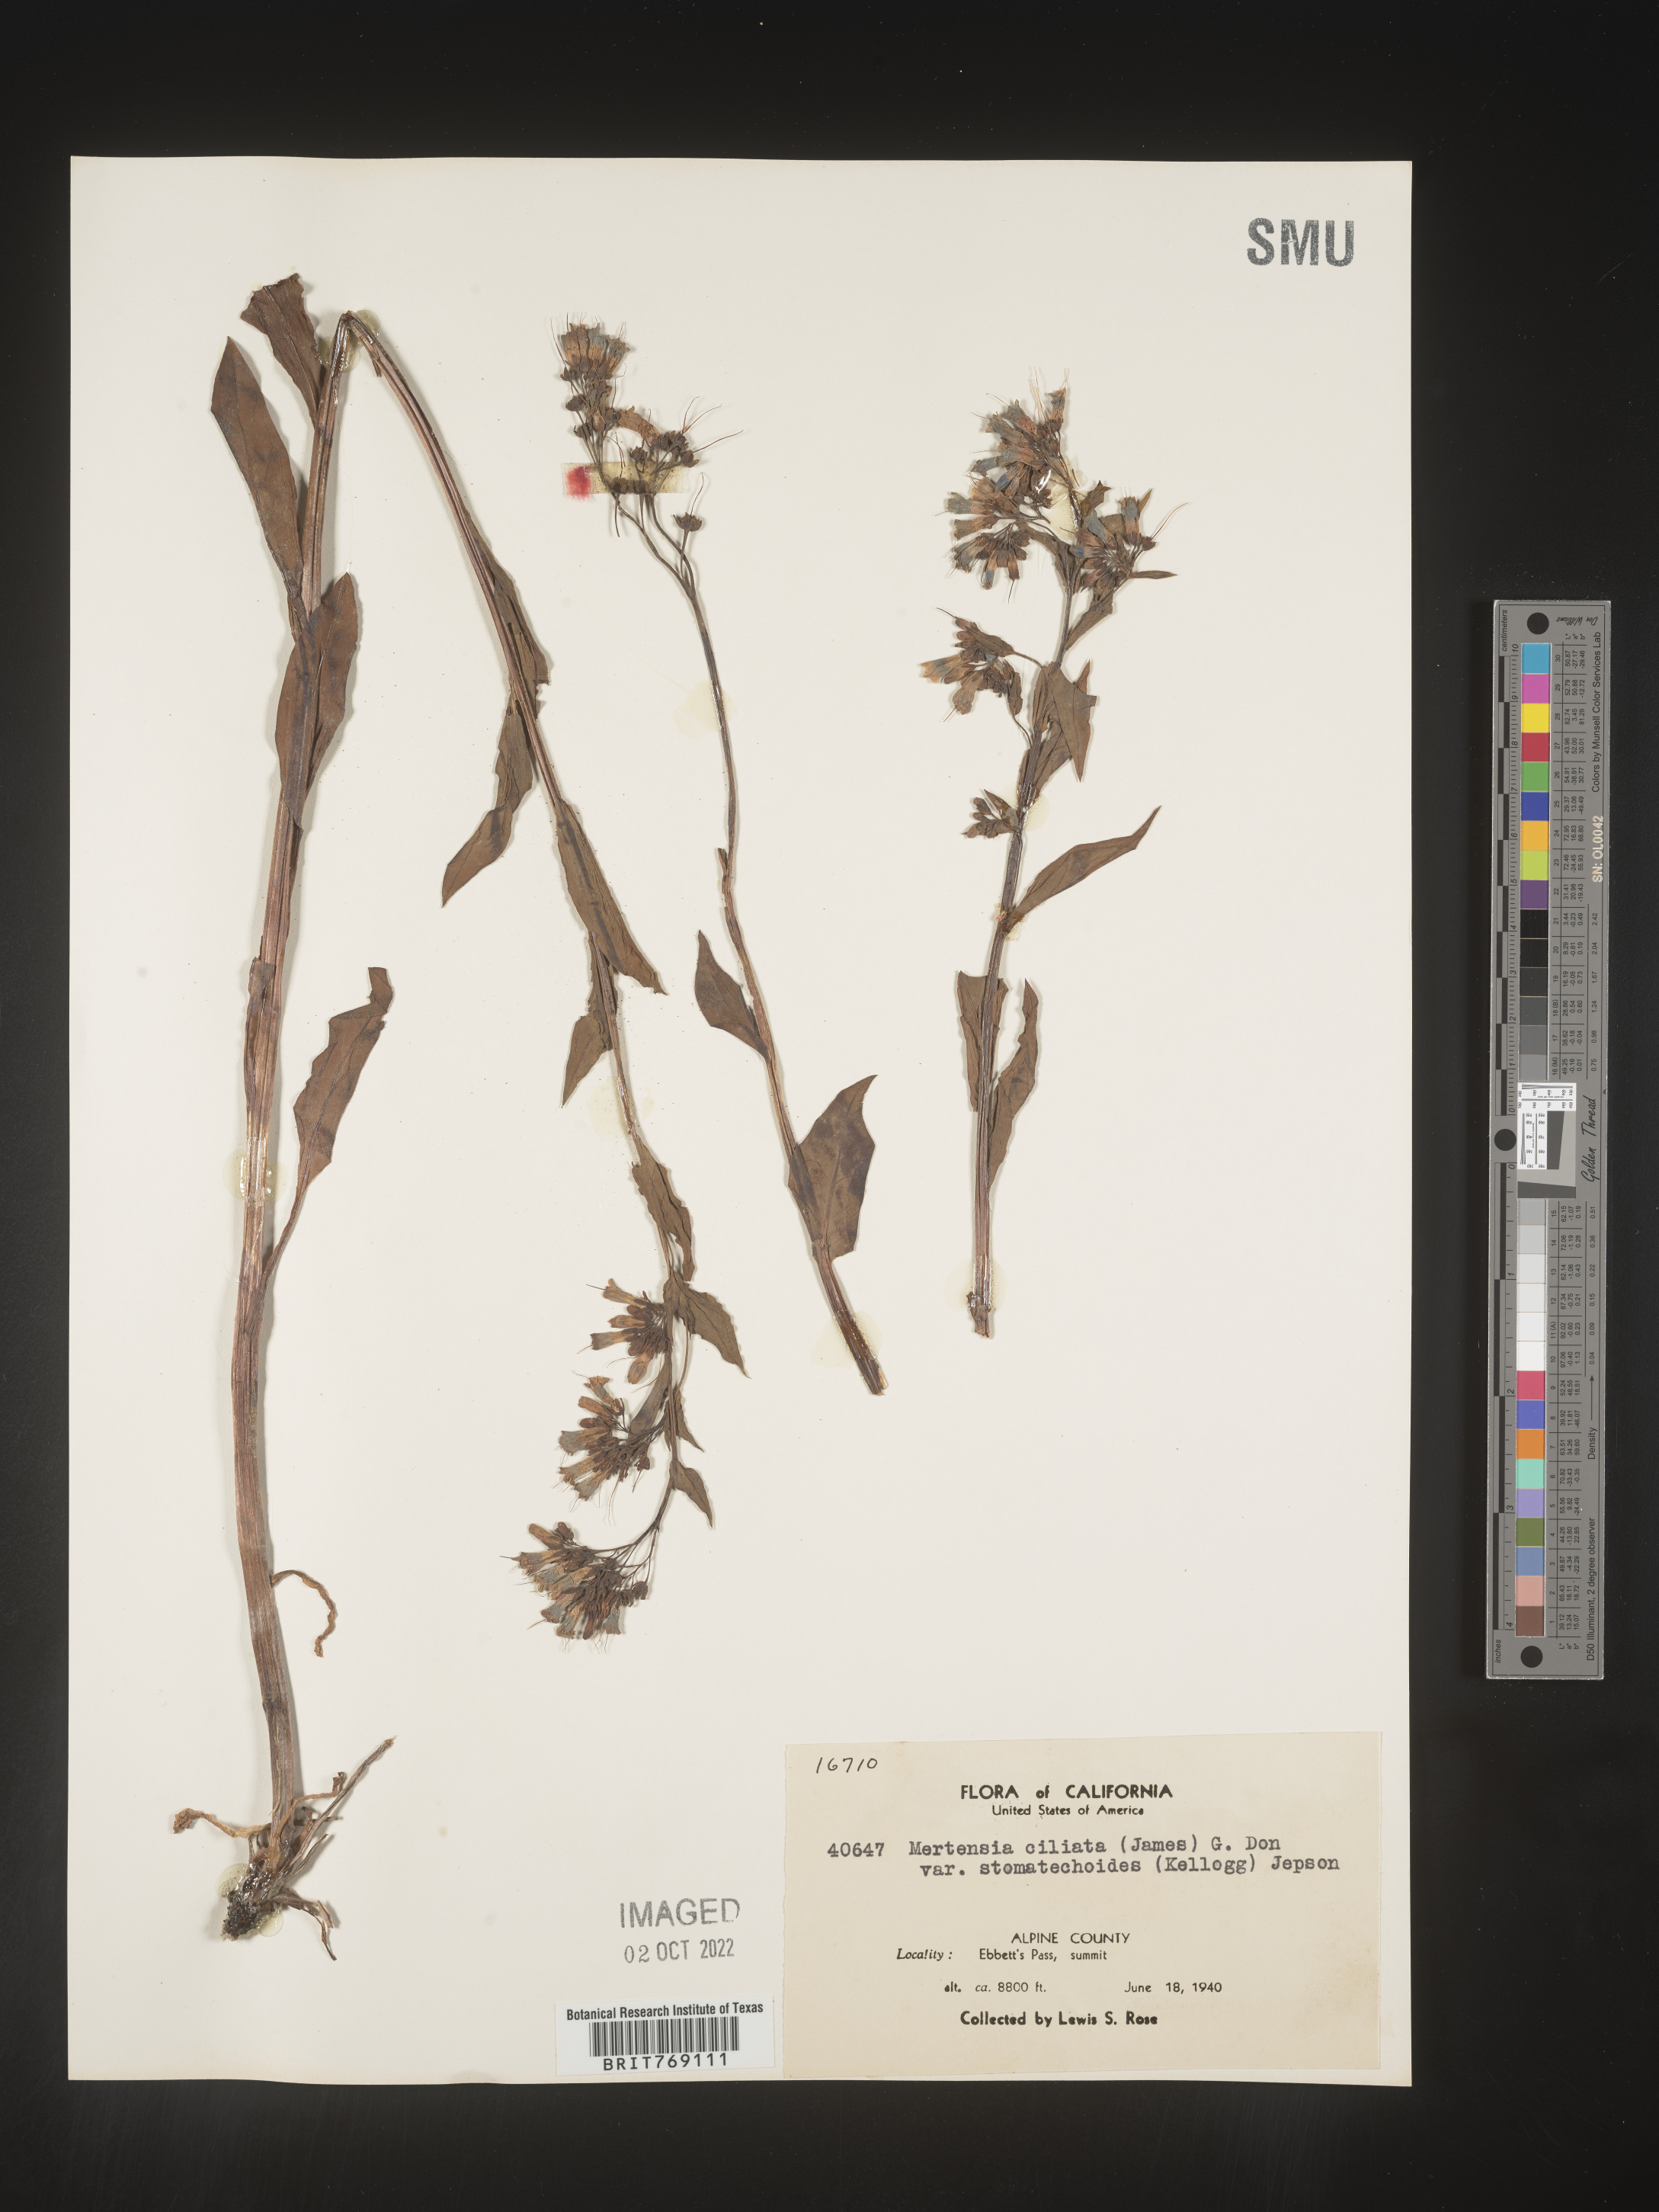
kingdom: Plantae
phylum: Tracheophyta
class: Magnoliopsida
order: Boraginales
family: Boraginaceae
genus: Mertensia
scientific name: Mertensia
